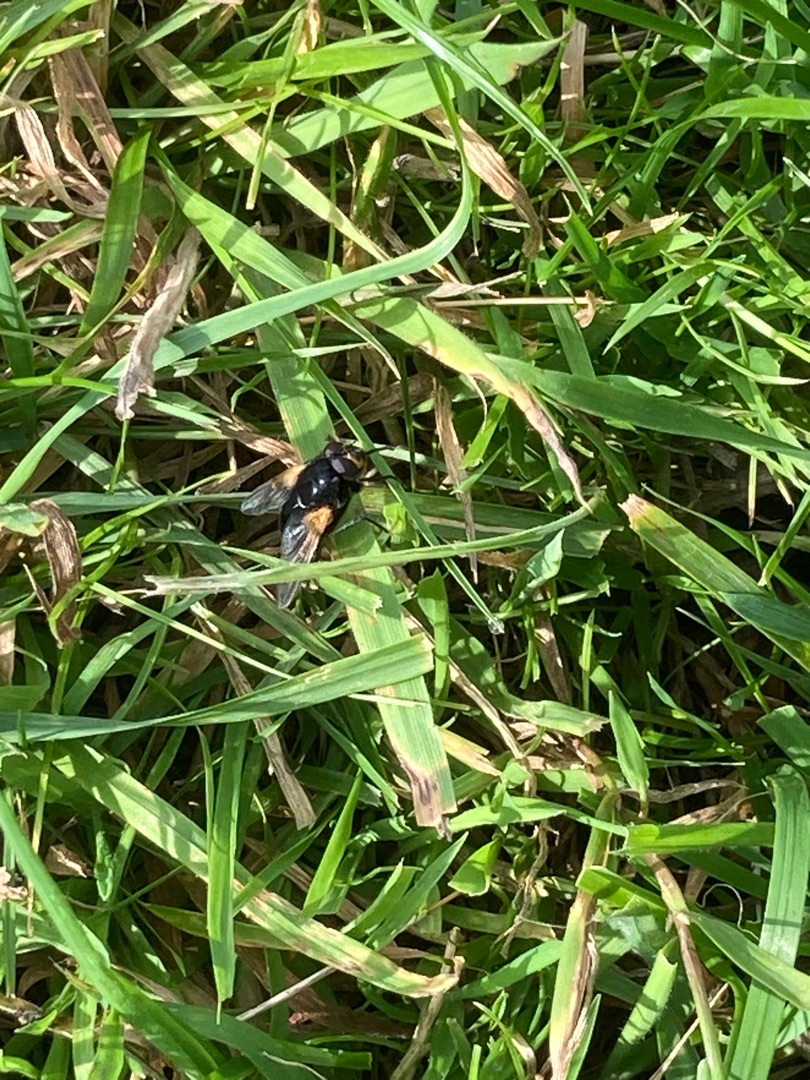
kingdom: Animalia
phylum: Arthropoda
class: Insecta
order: Diptera
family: Muscidae
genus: Mesembrina
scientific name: Mesembrina meridiana
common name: Gulvinget flue
